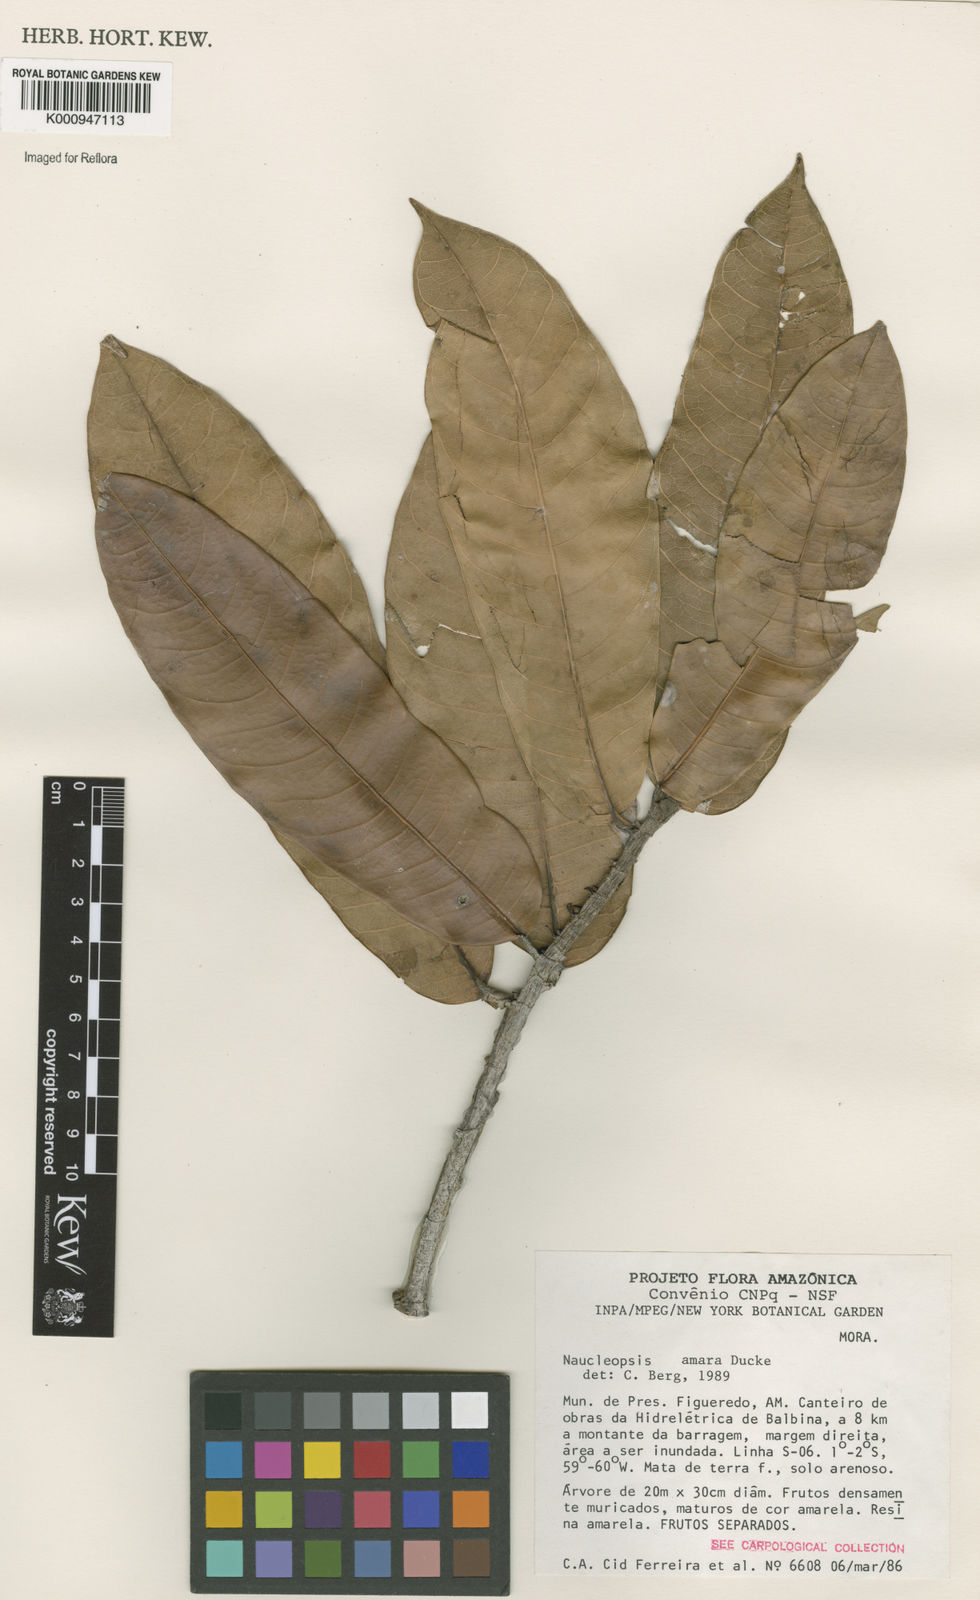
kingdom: Plantae
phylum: Tracheophyta
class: Magnoliopsida
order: Rosales
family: Moraceae
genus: Naucleopsis
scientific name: Naucleopsis ulei
